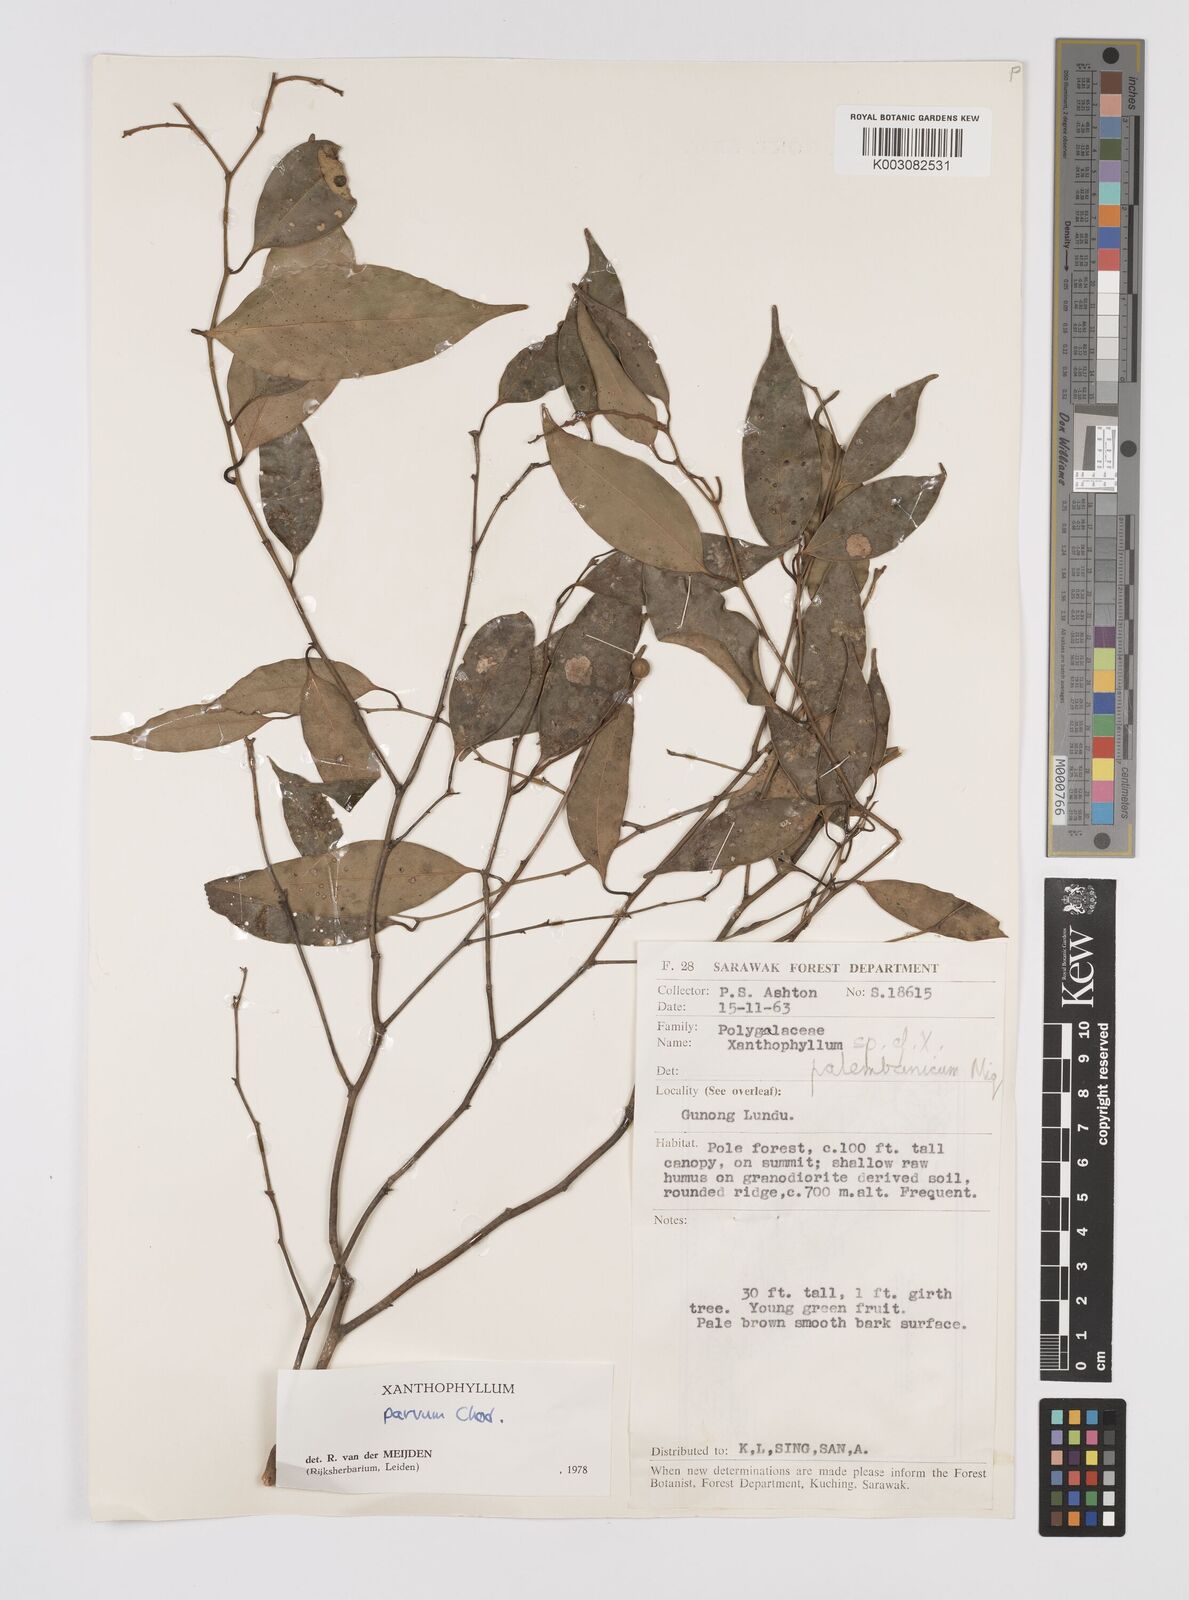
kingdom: Plantae
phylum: Tracheophyta
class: Magnoliopsida
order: Fabales
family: Polygalaceae
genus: Xanthophyllum
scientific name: Xanthophyllum griffithii
